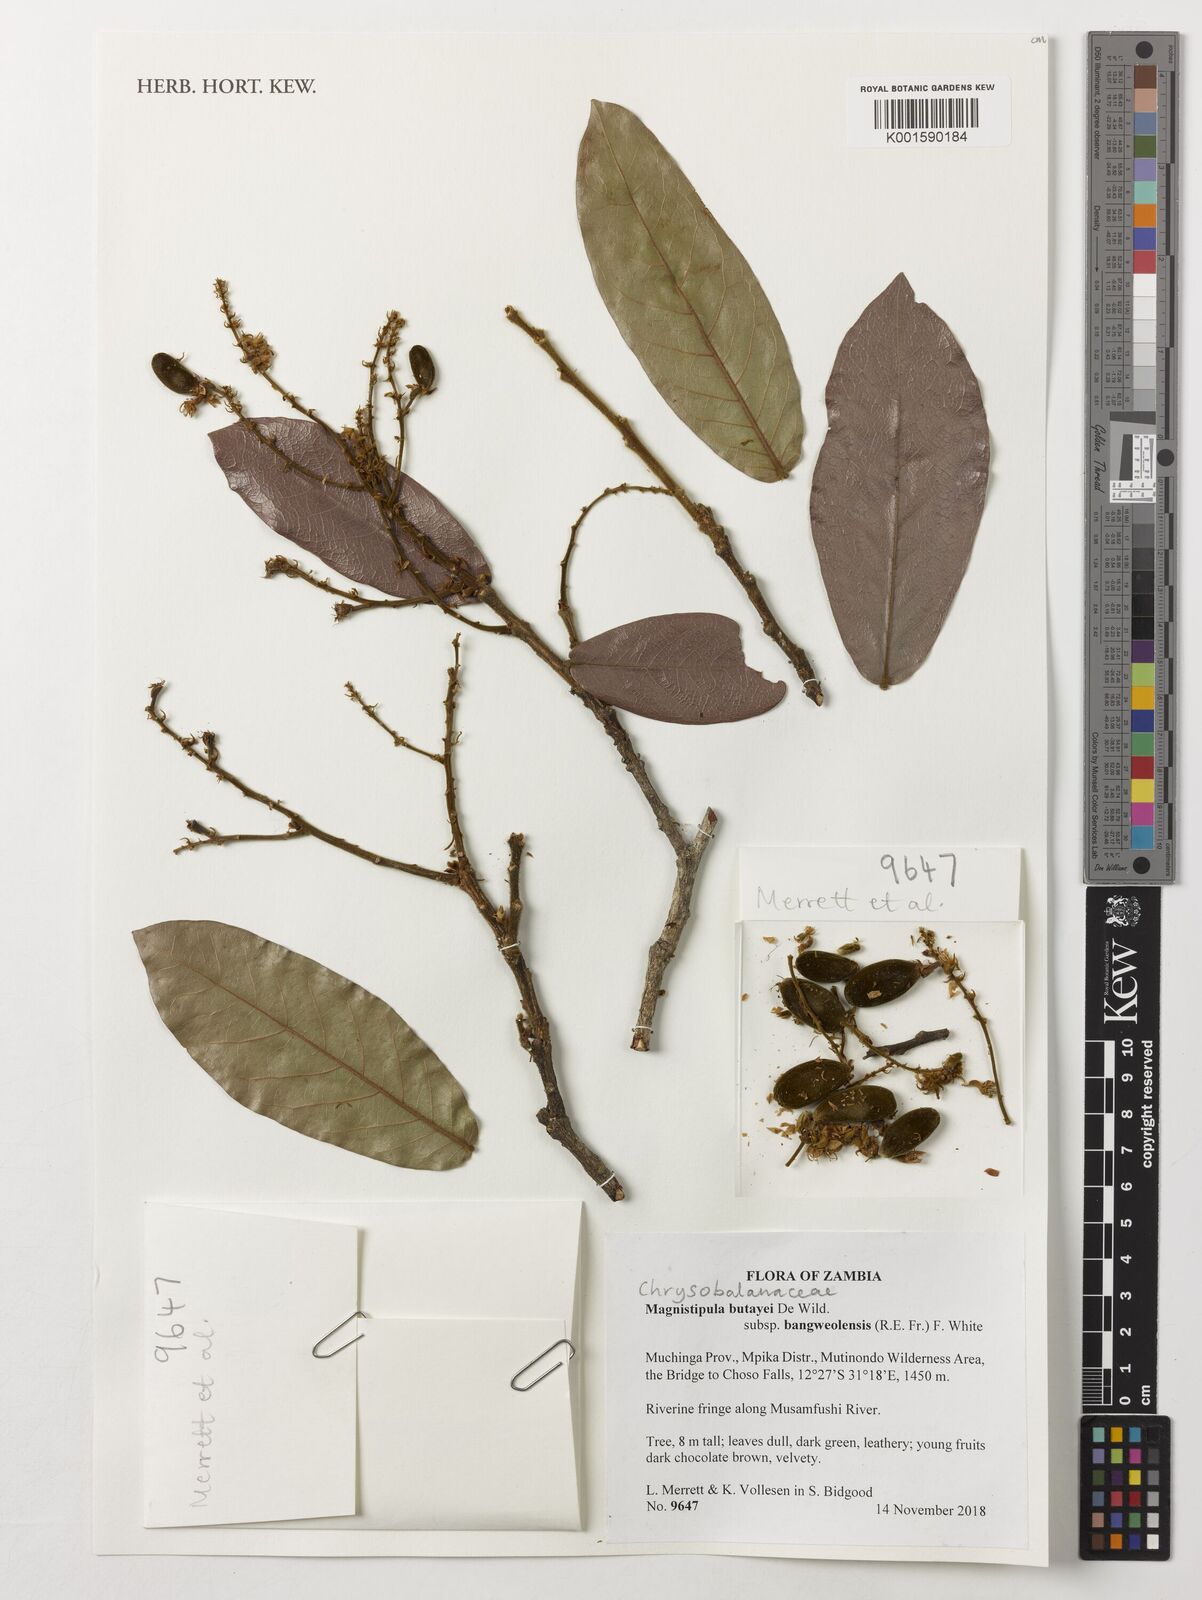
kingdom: Plantae
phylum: Tracheophyta
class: Magnoliopsida
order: Malpighiales
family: Chrysobalanaceae
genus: Magnistipula
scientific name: Magnistipula butayei
